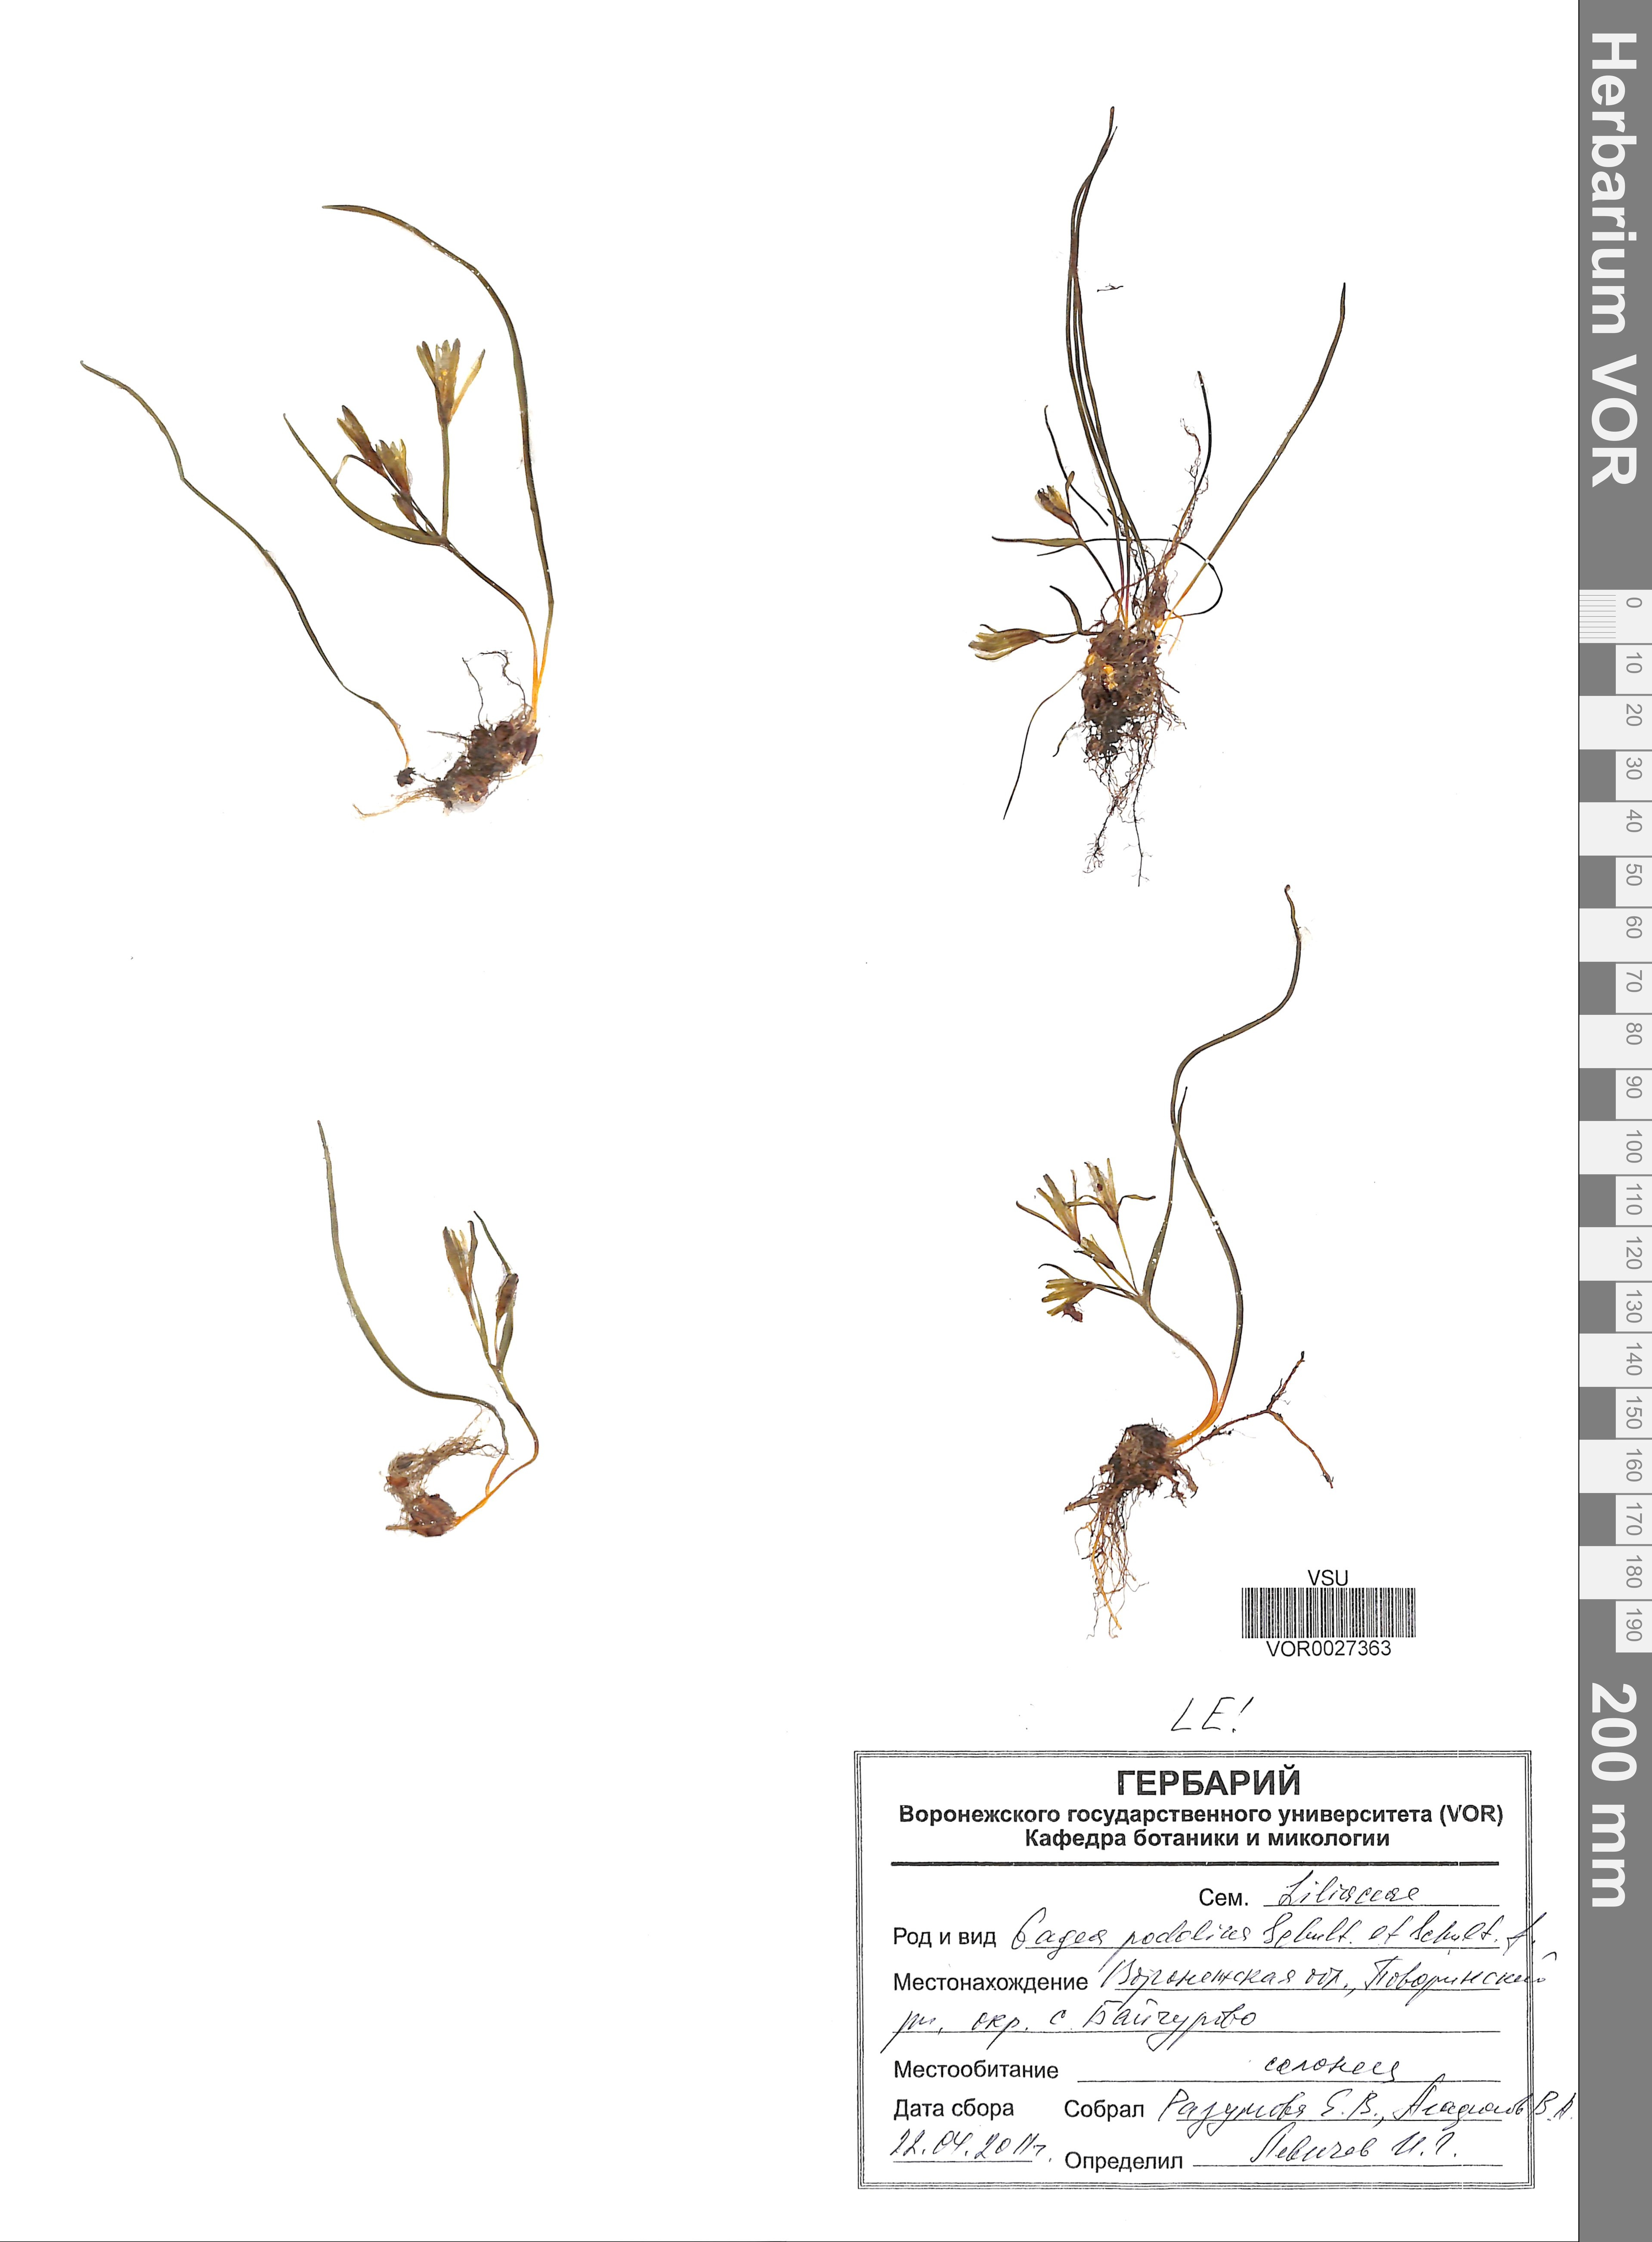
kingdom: Plantae
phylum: Tracheophyta
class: Liliopsida
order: Liliales
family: Liliaceae
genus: Gagea
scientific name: Gagea podolica
